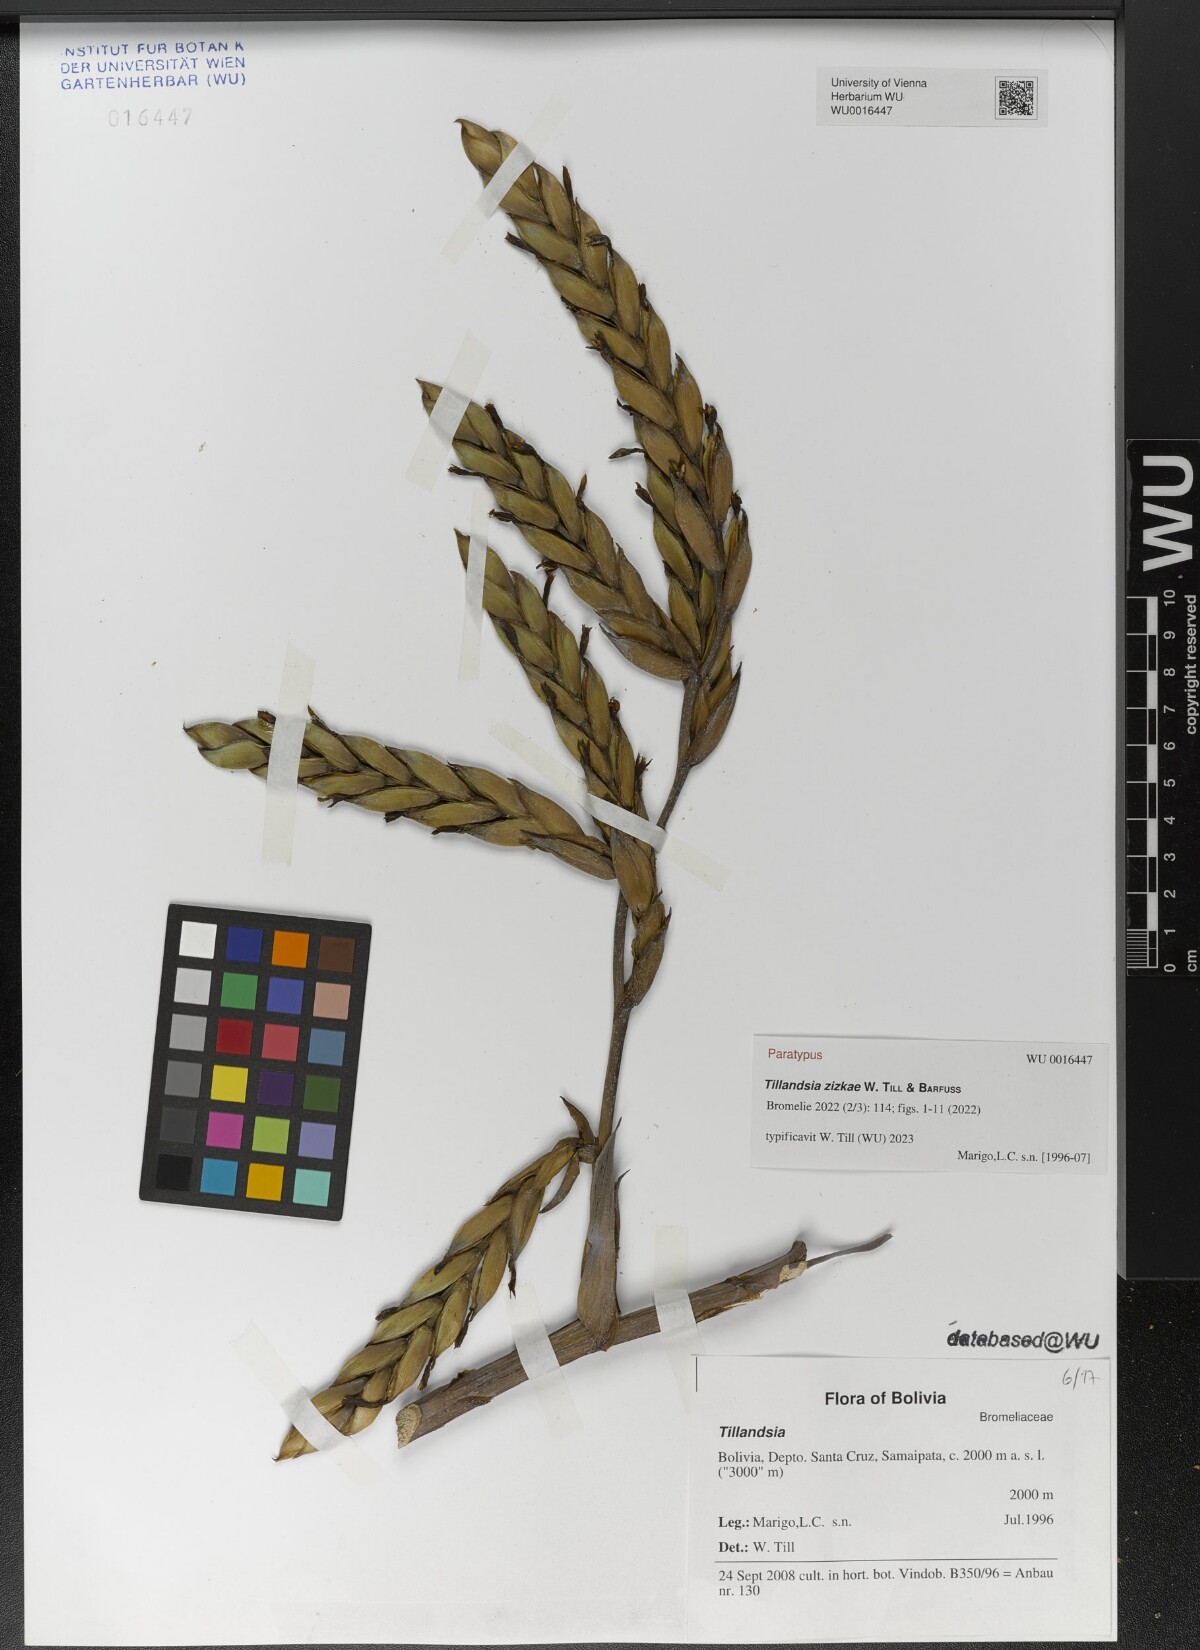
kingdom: Plantae
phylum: Tracheophyta
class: Liliopsida
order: Poales
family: Bromeliaceae
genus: Tillandsia
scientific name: Tillandsia
